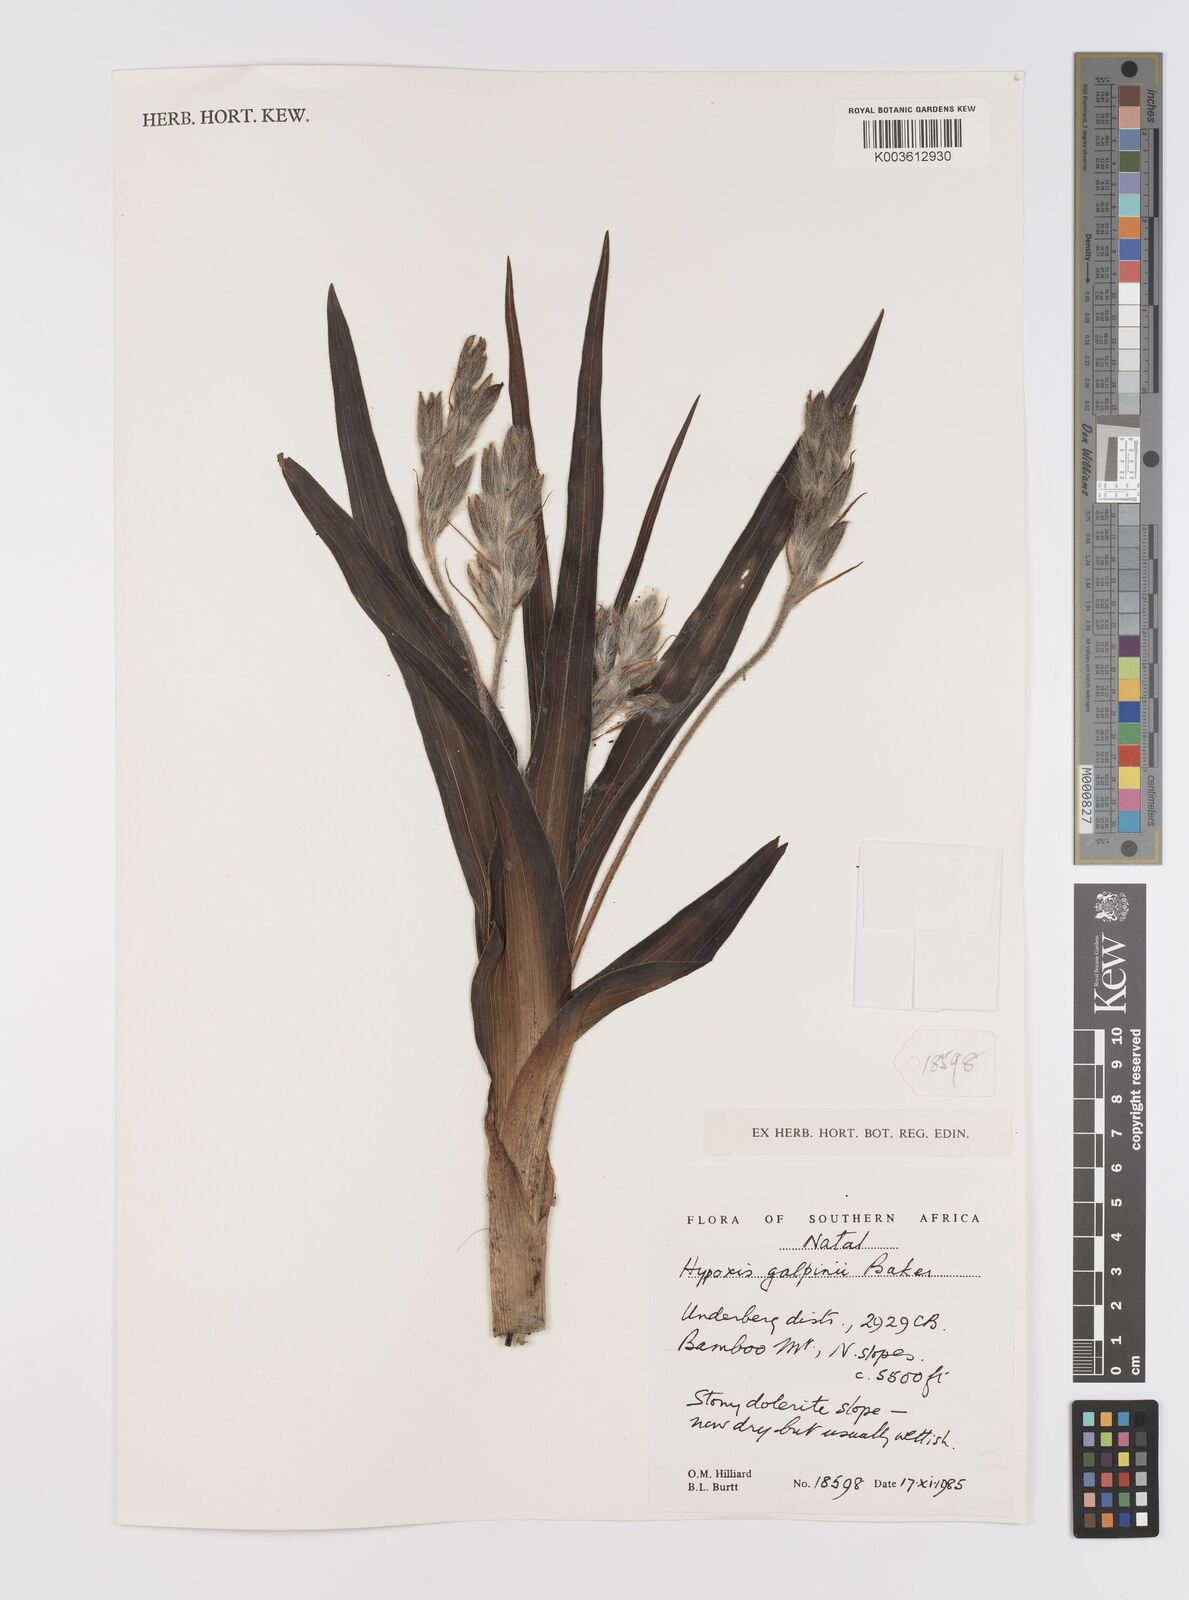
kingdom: Plantae
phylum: Tracheophyta
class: Liliopsida
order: Asparagales
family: Hypoxidaceae
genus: Hypoxis
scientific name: Hypoxis galpinii
